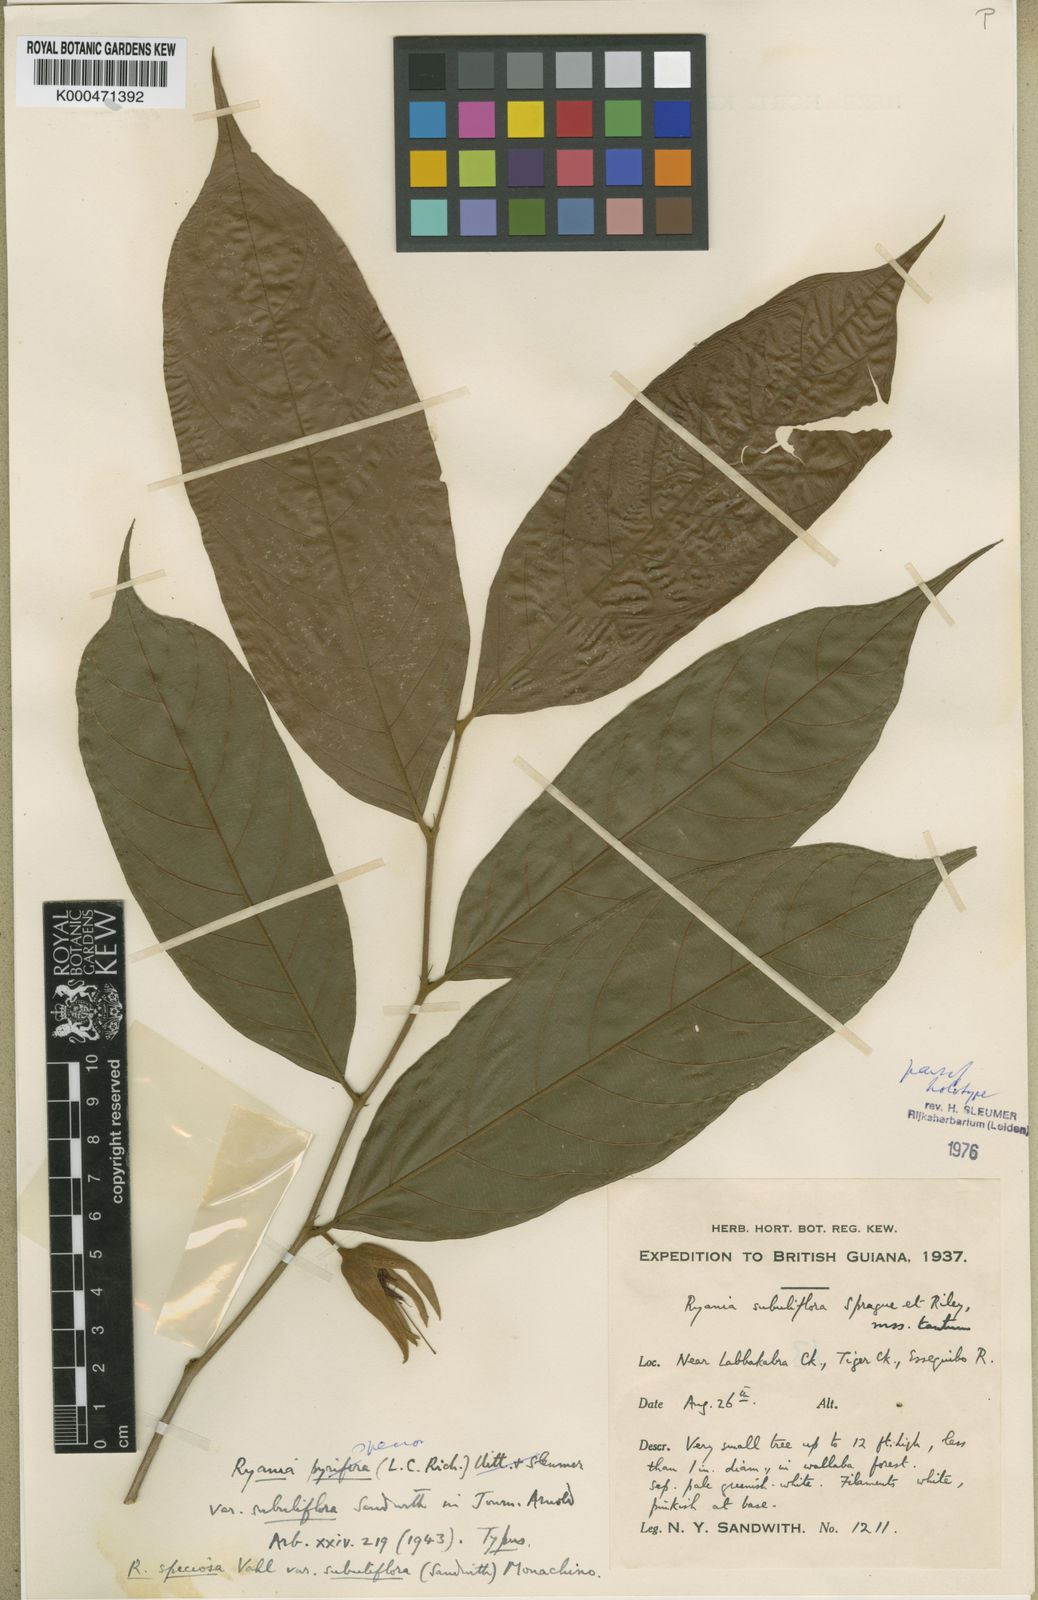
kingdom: Plantae
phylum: Tracheophyta
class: Magnoliopsida
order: Malpighiales
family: Salicaceae
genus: Ryania
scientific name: Ryania speciosa
